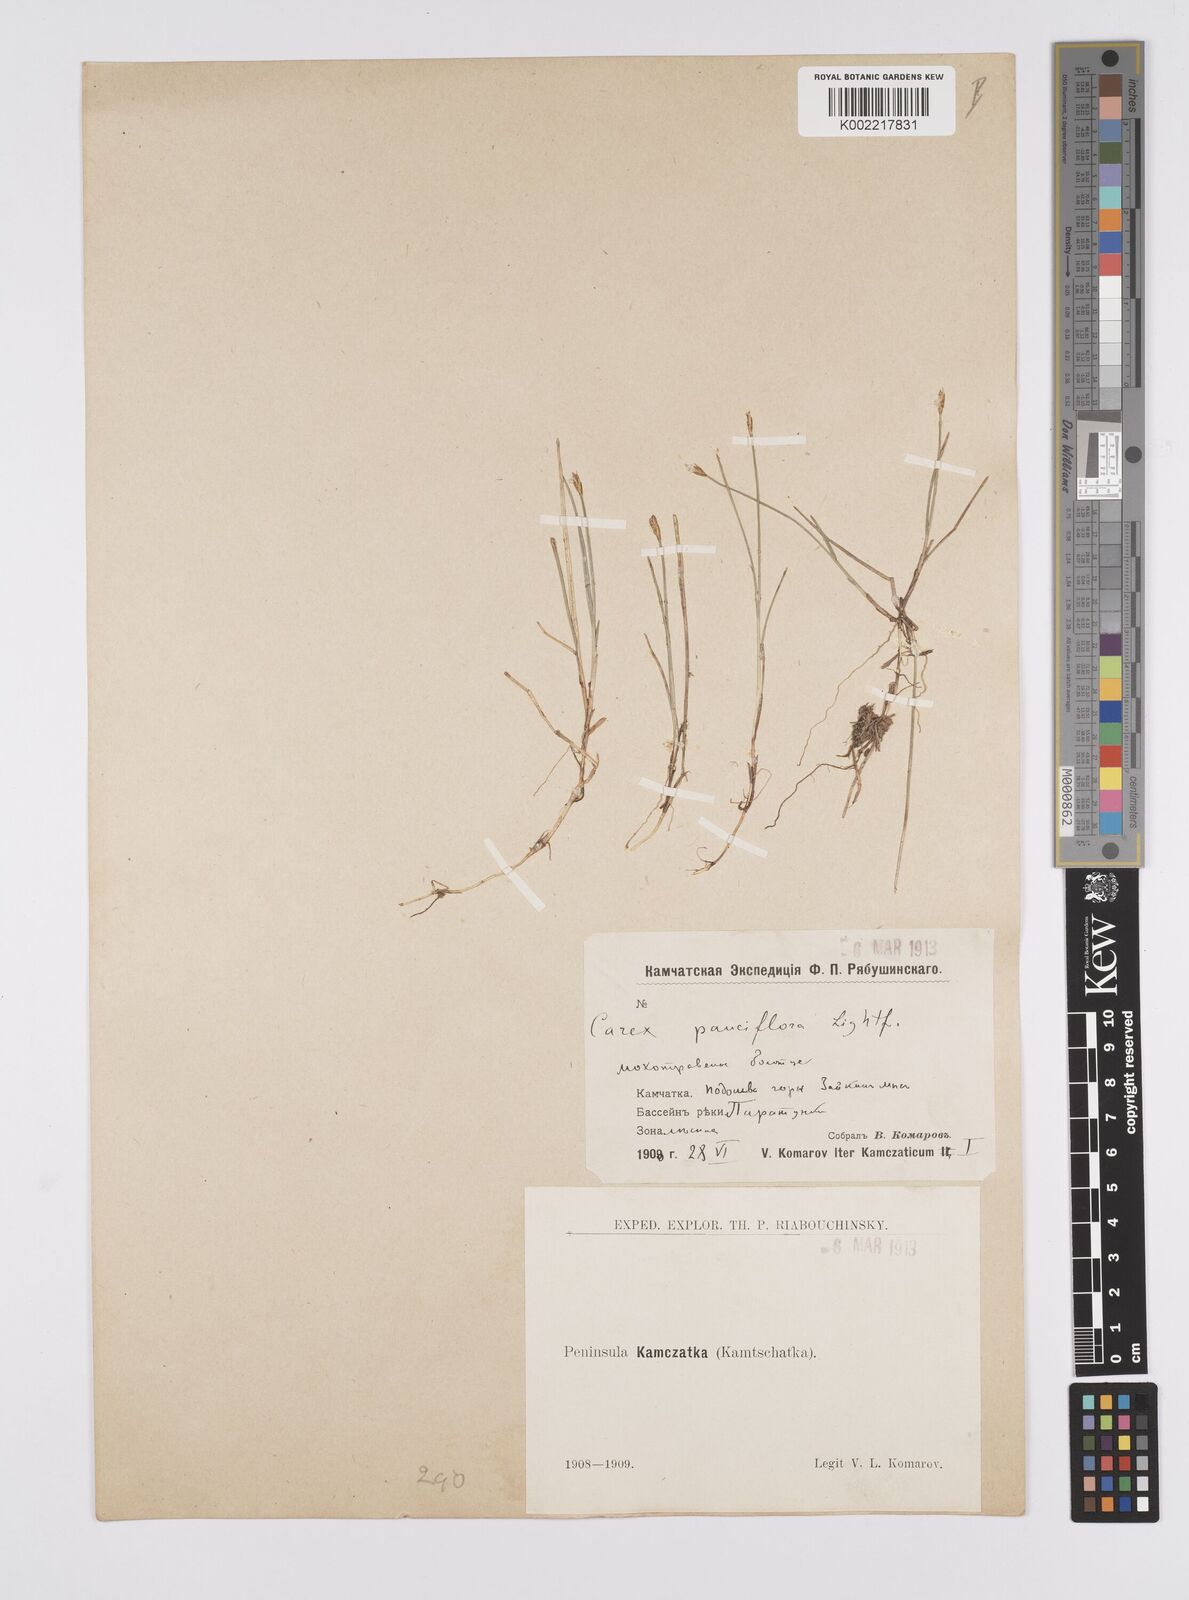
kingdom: Plantae
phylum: Tracheophyta
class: Liliopsida
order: Poales
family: Cyperaceae
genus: Carex
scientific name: Carex pauciflora
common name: Few-flowered sedge
